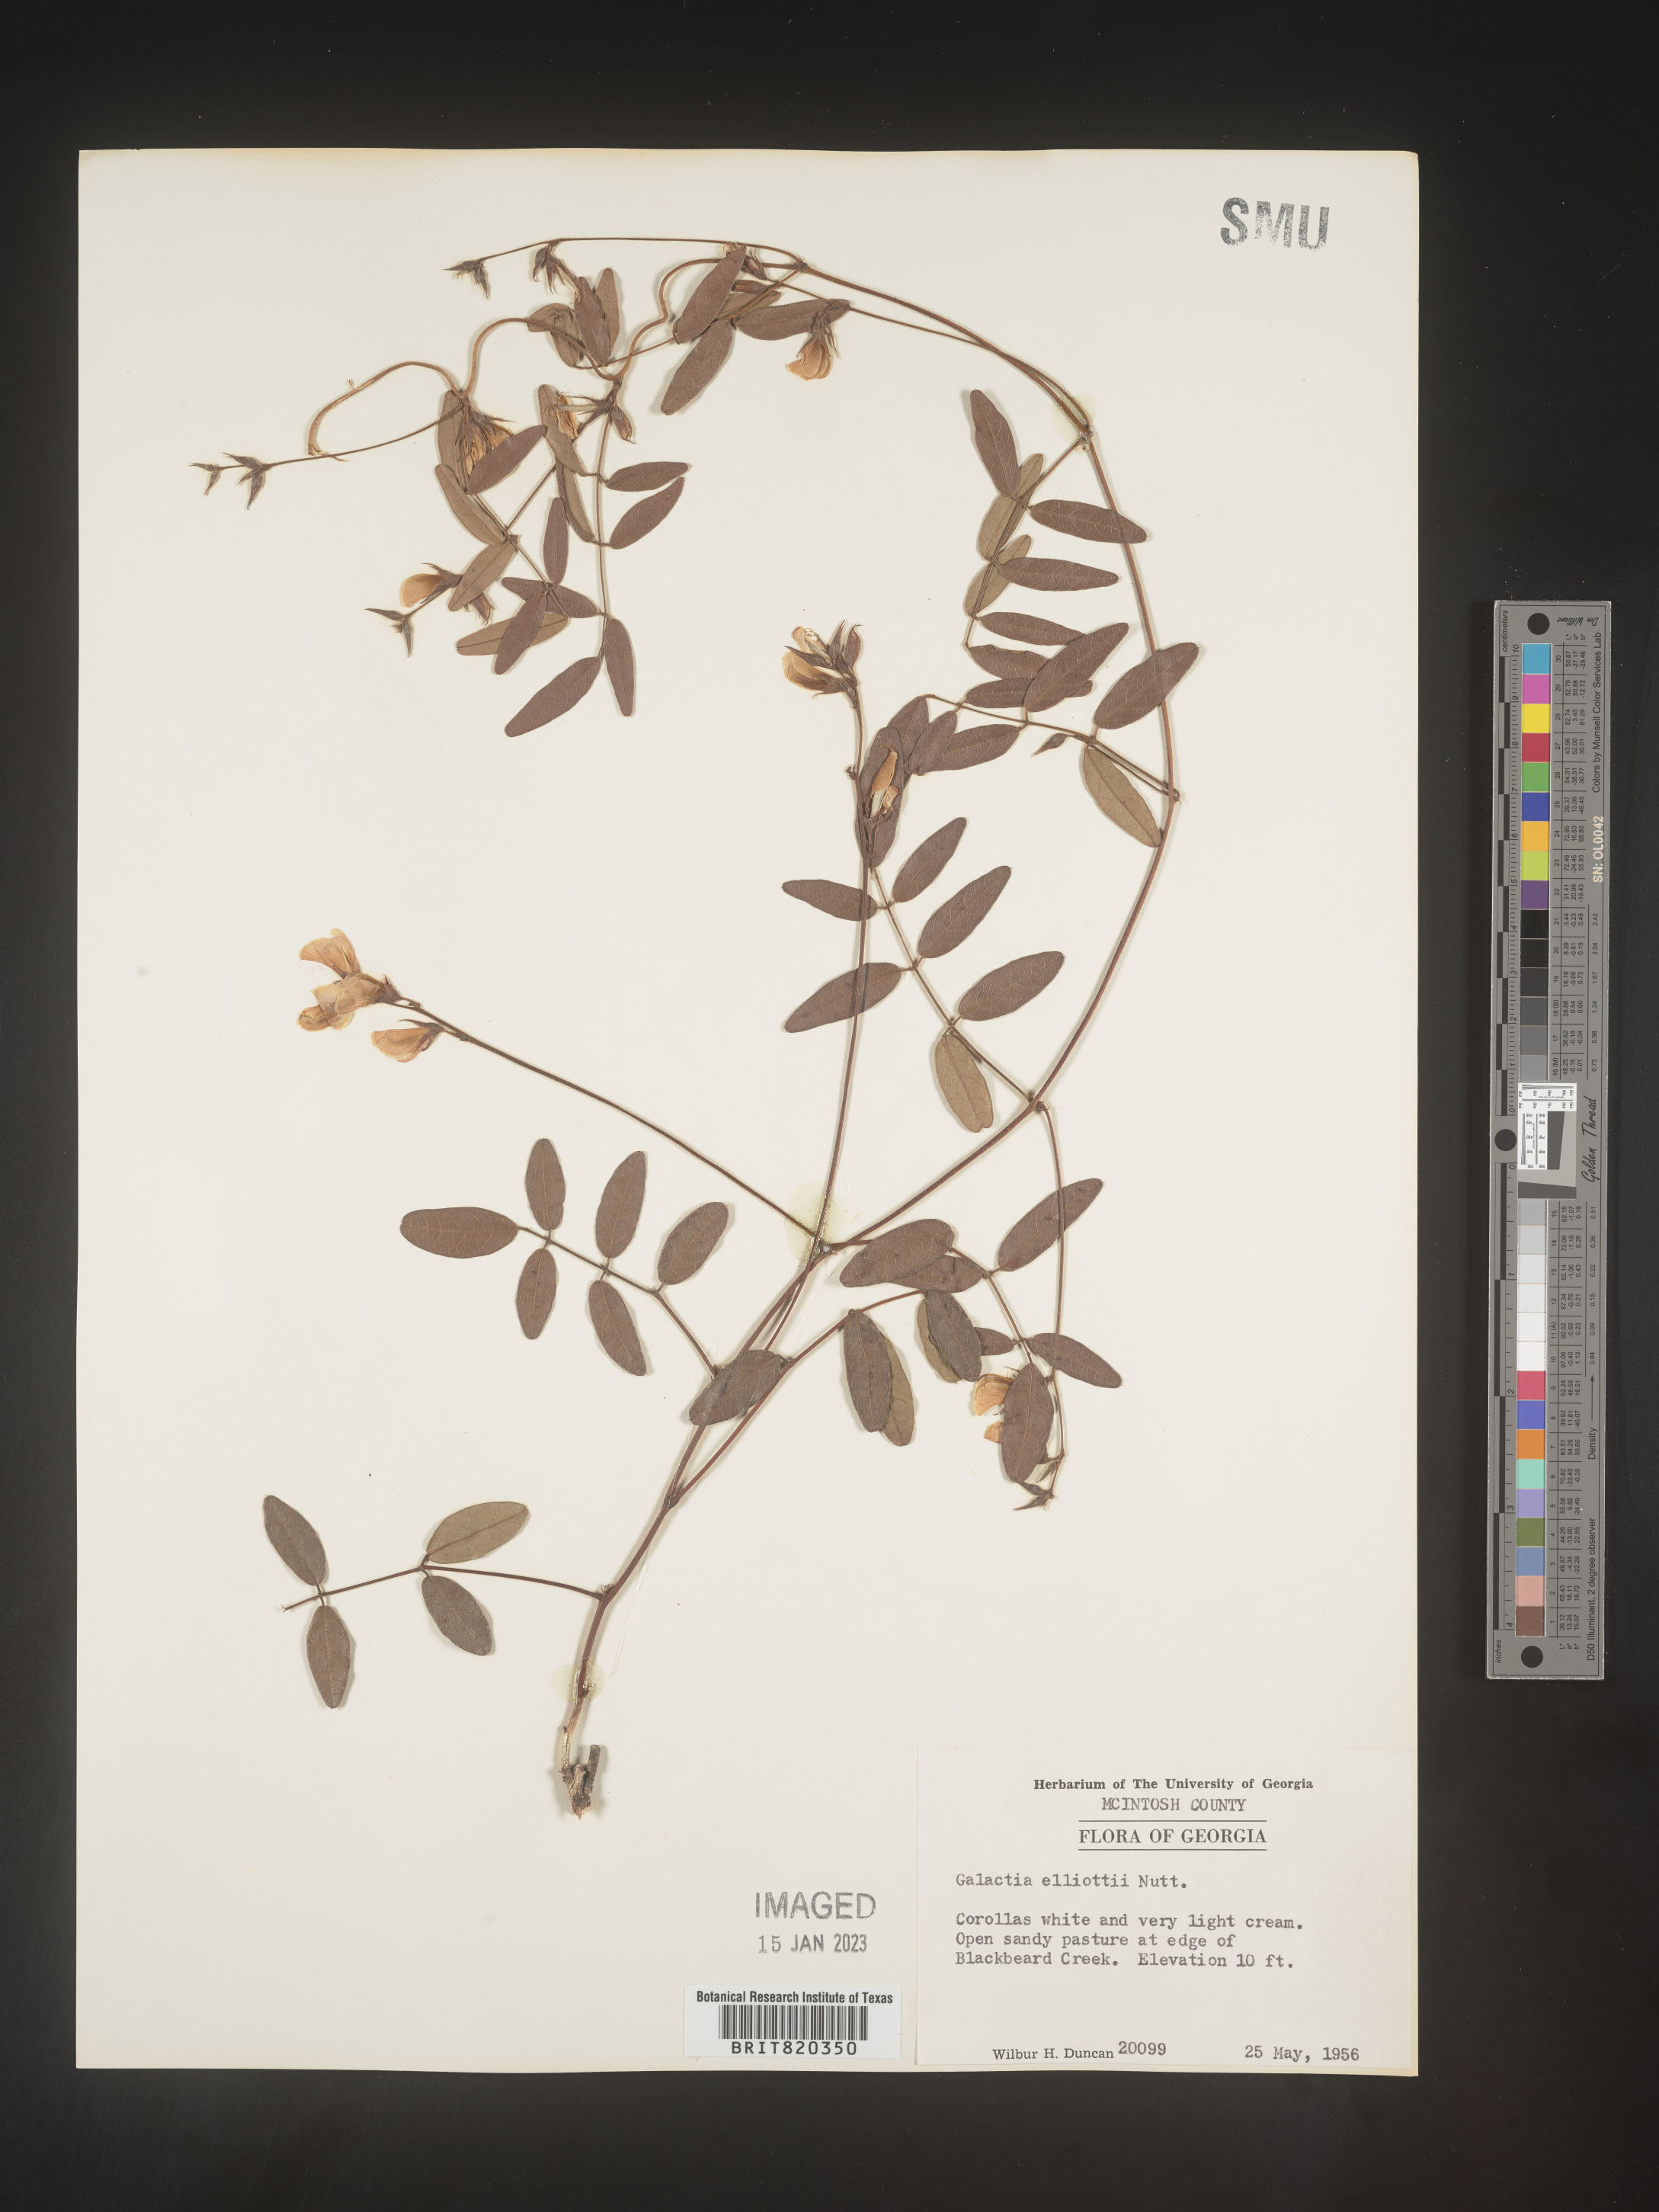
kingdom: Plantae
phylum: Tracheophyta
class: Magnoliopsida
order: Fabales
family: Fabaceae
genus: Galactia
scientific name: Galactia elliottii
